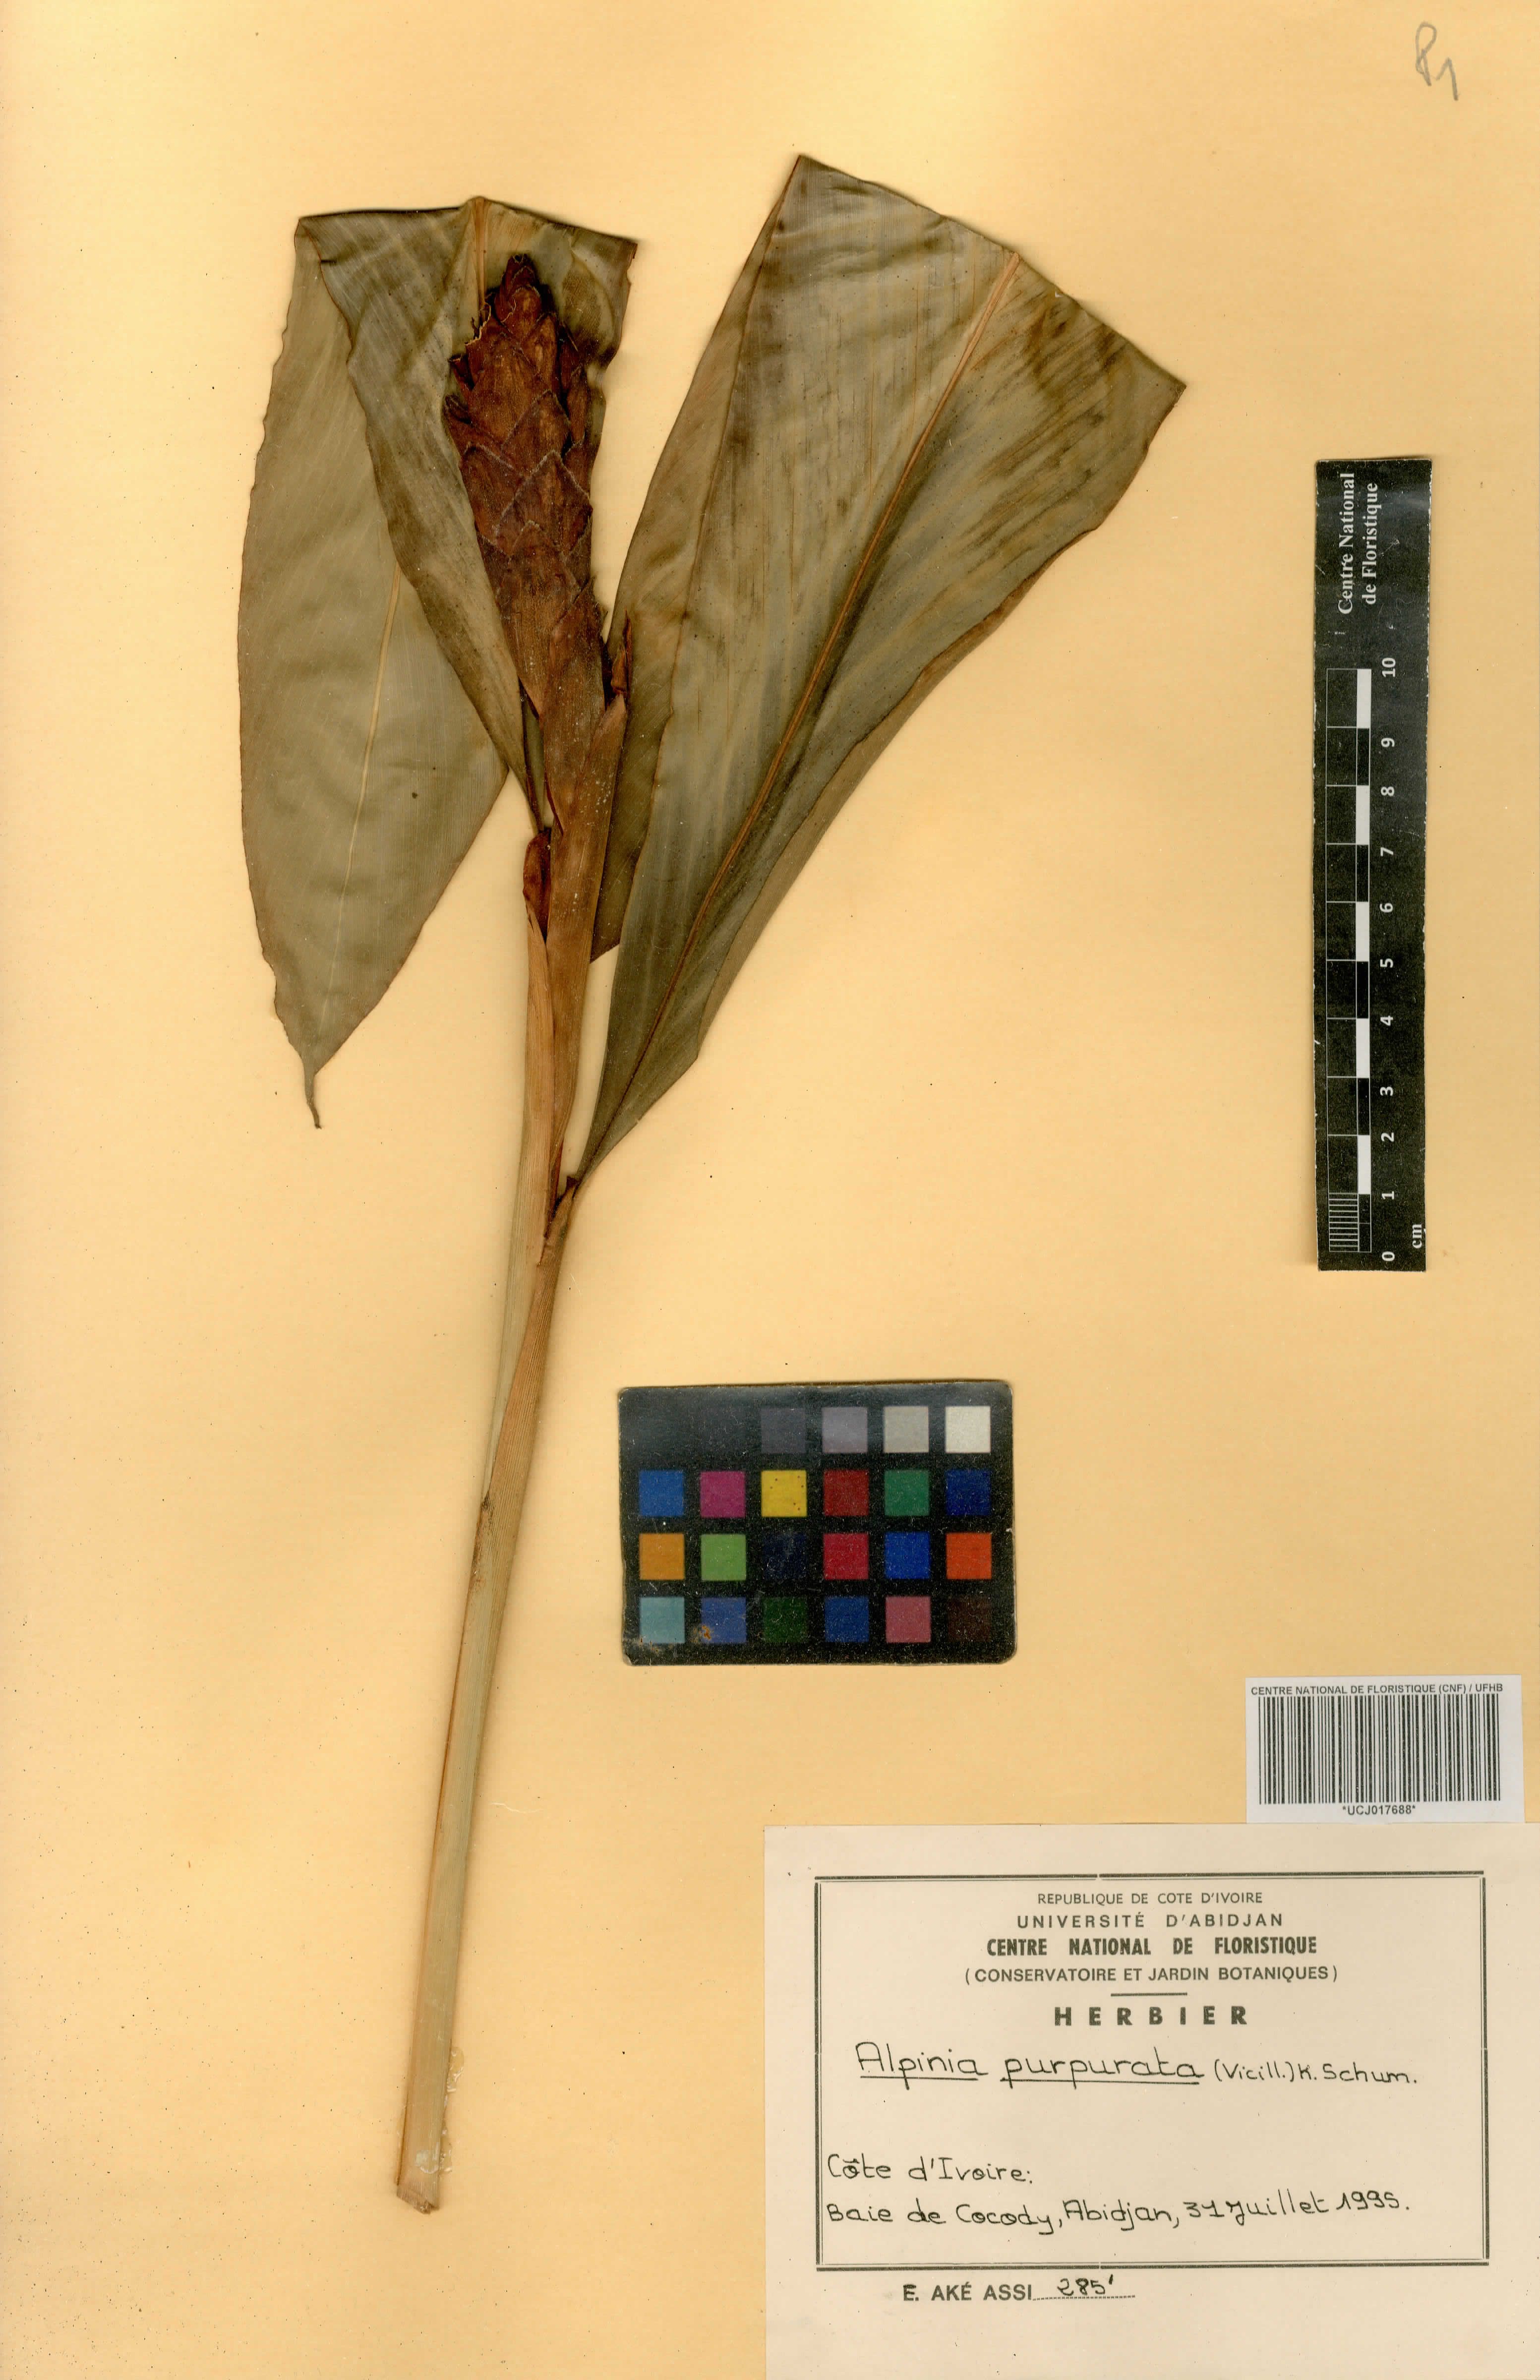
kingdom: Plantae
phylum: Tracheophyta
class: Liliopsida
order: Zingiberales
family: Zingiberaceae
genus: Alpinia
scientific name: Alpinia purpurata
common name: Red ginger
